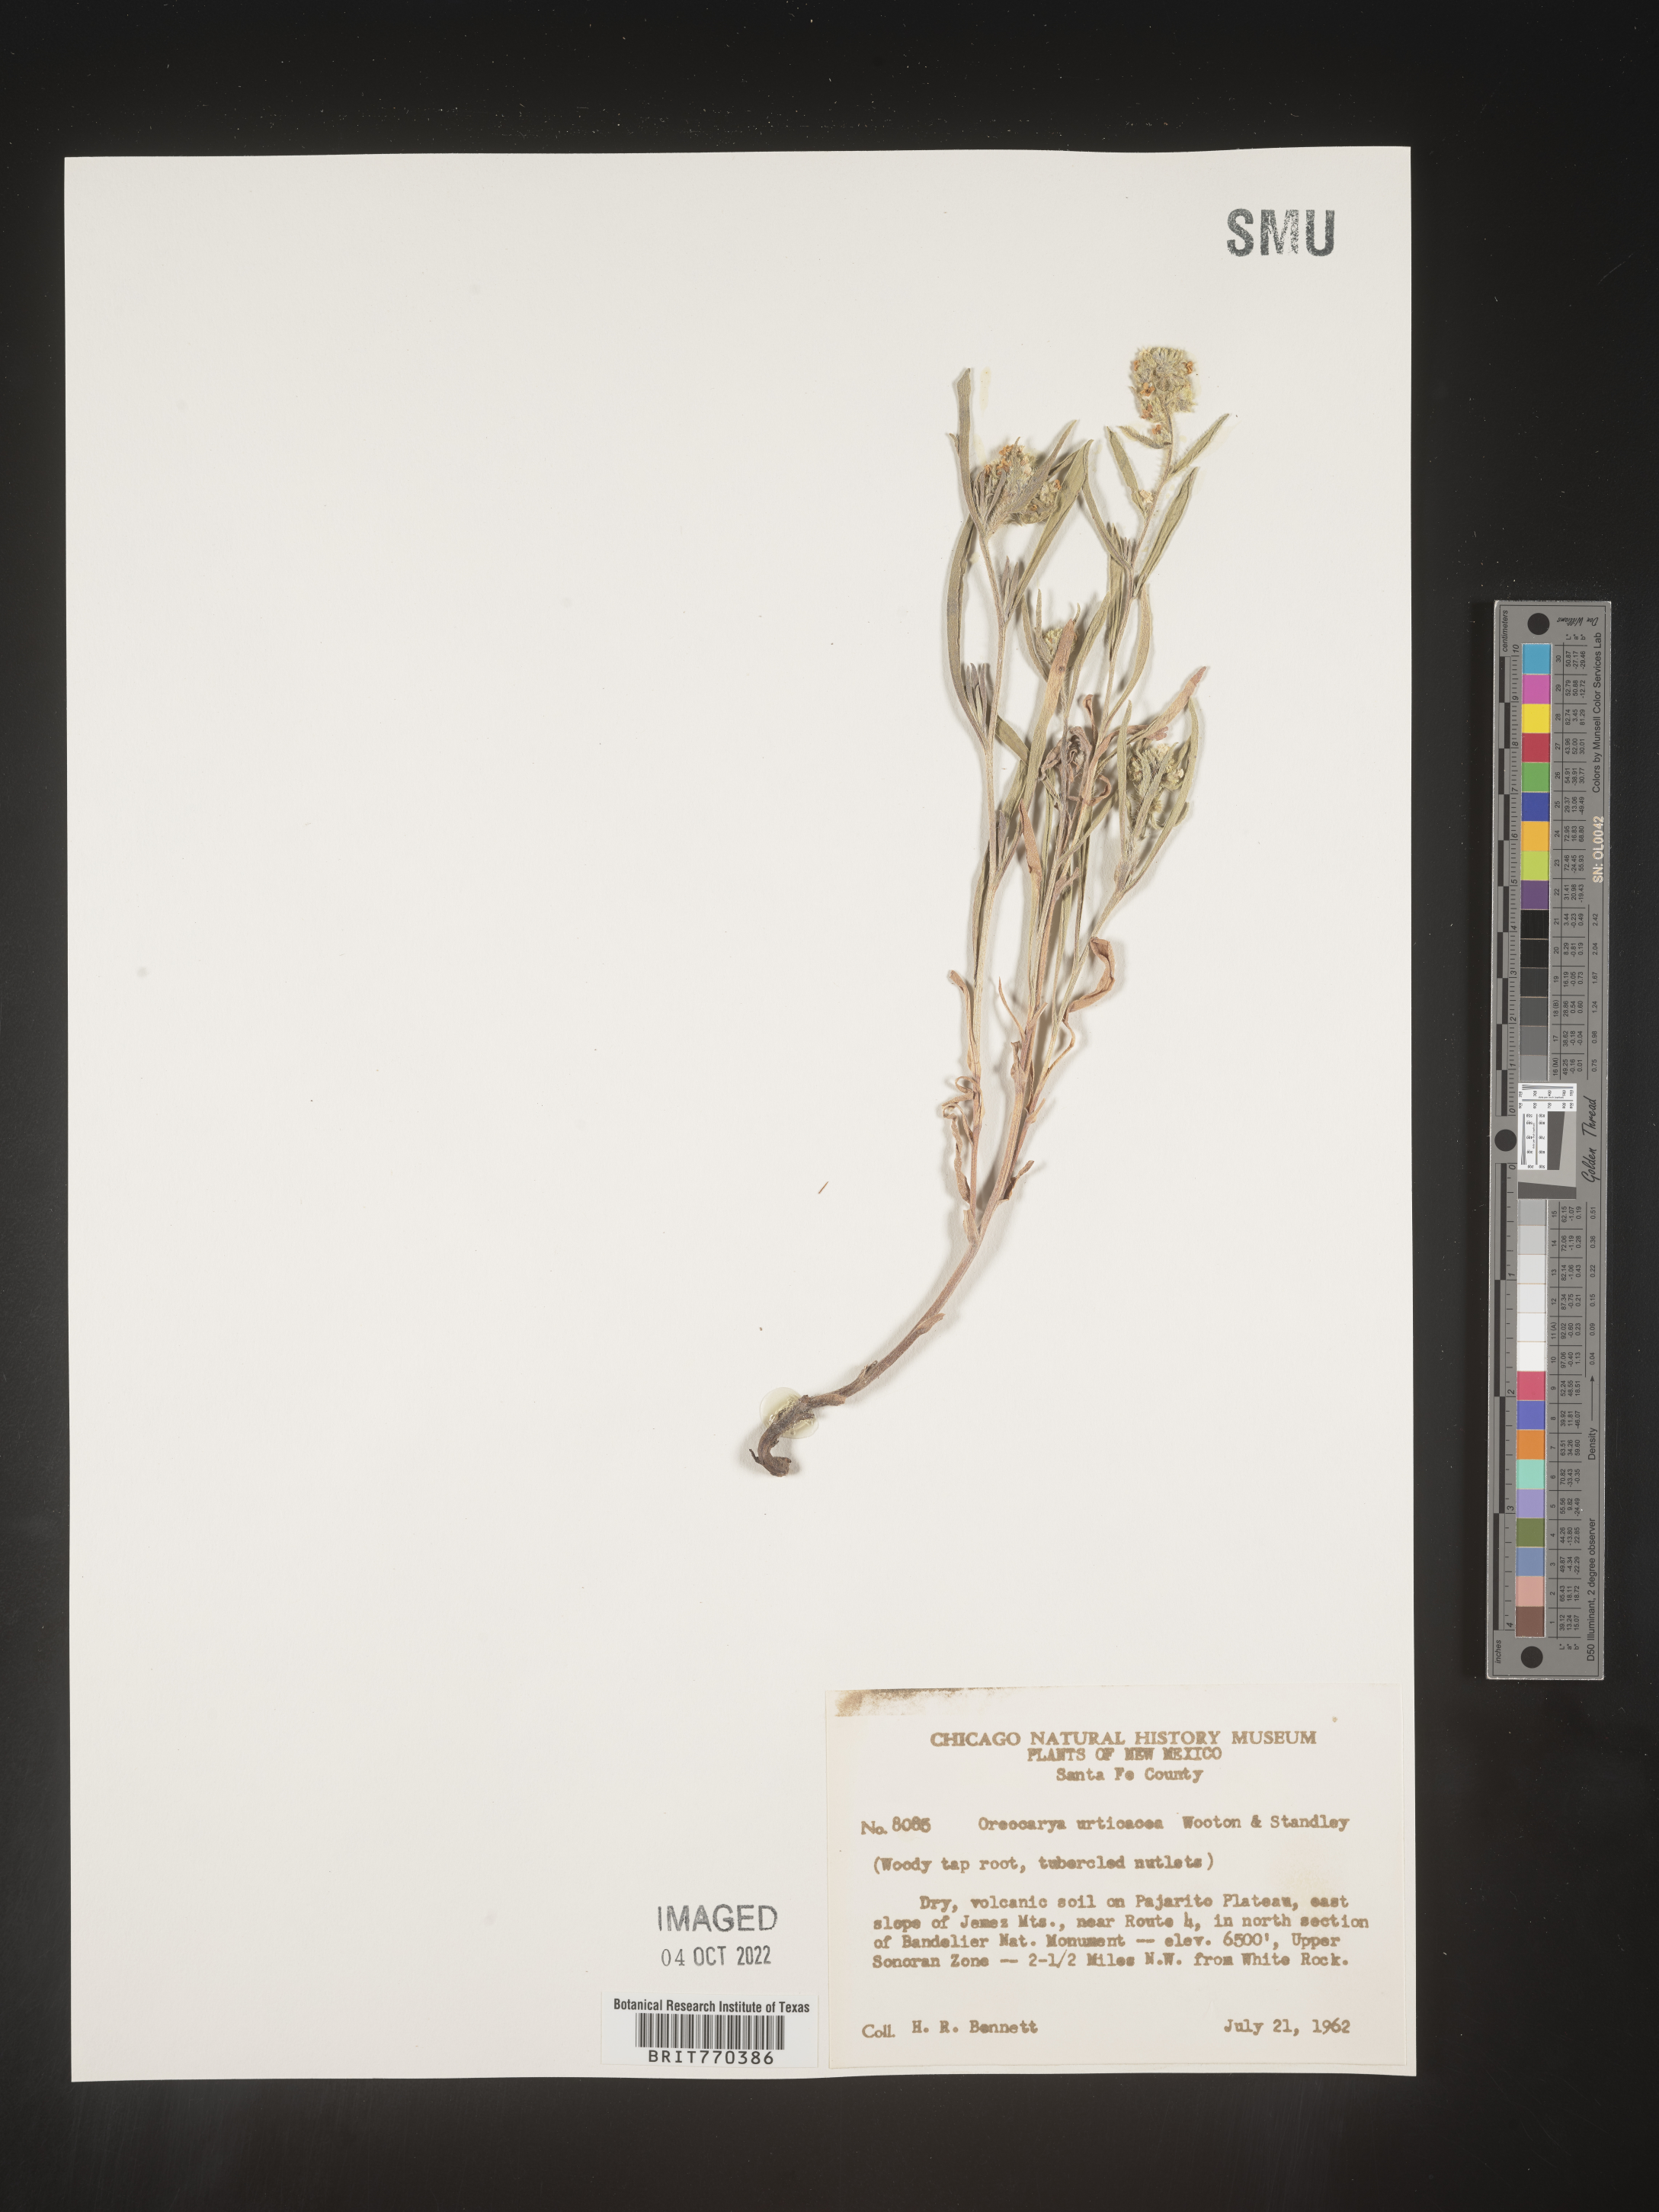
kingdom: Plantae
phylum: Tracheophyta
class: Magnoliopsida
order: Boraginales
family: Boraginaceae
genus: Oreocarya
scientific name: Oreocarya
